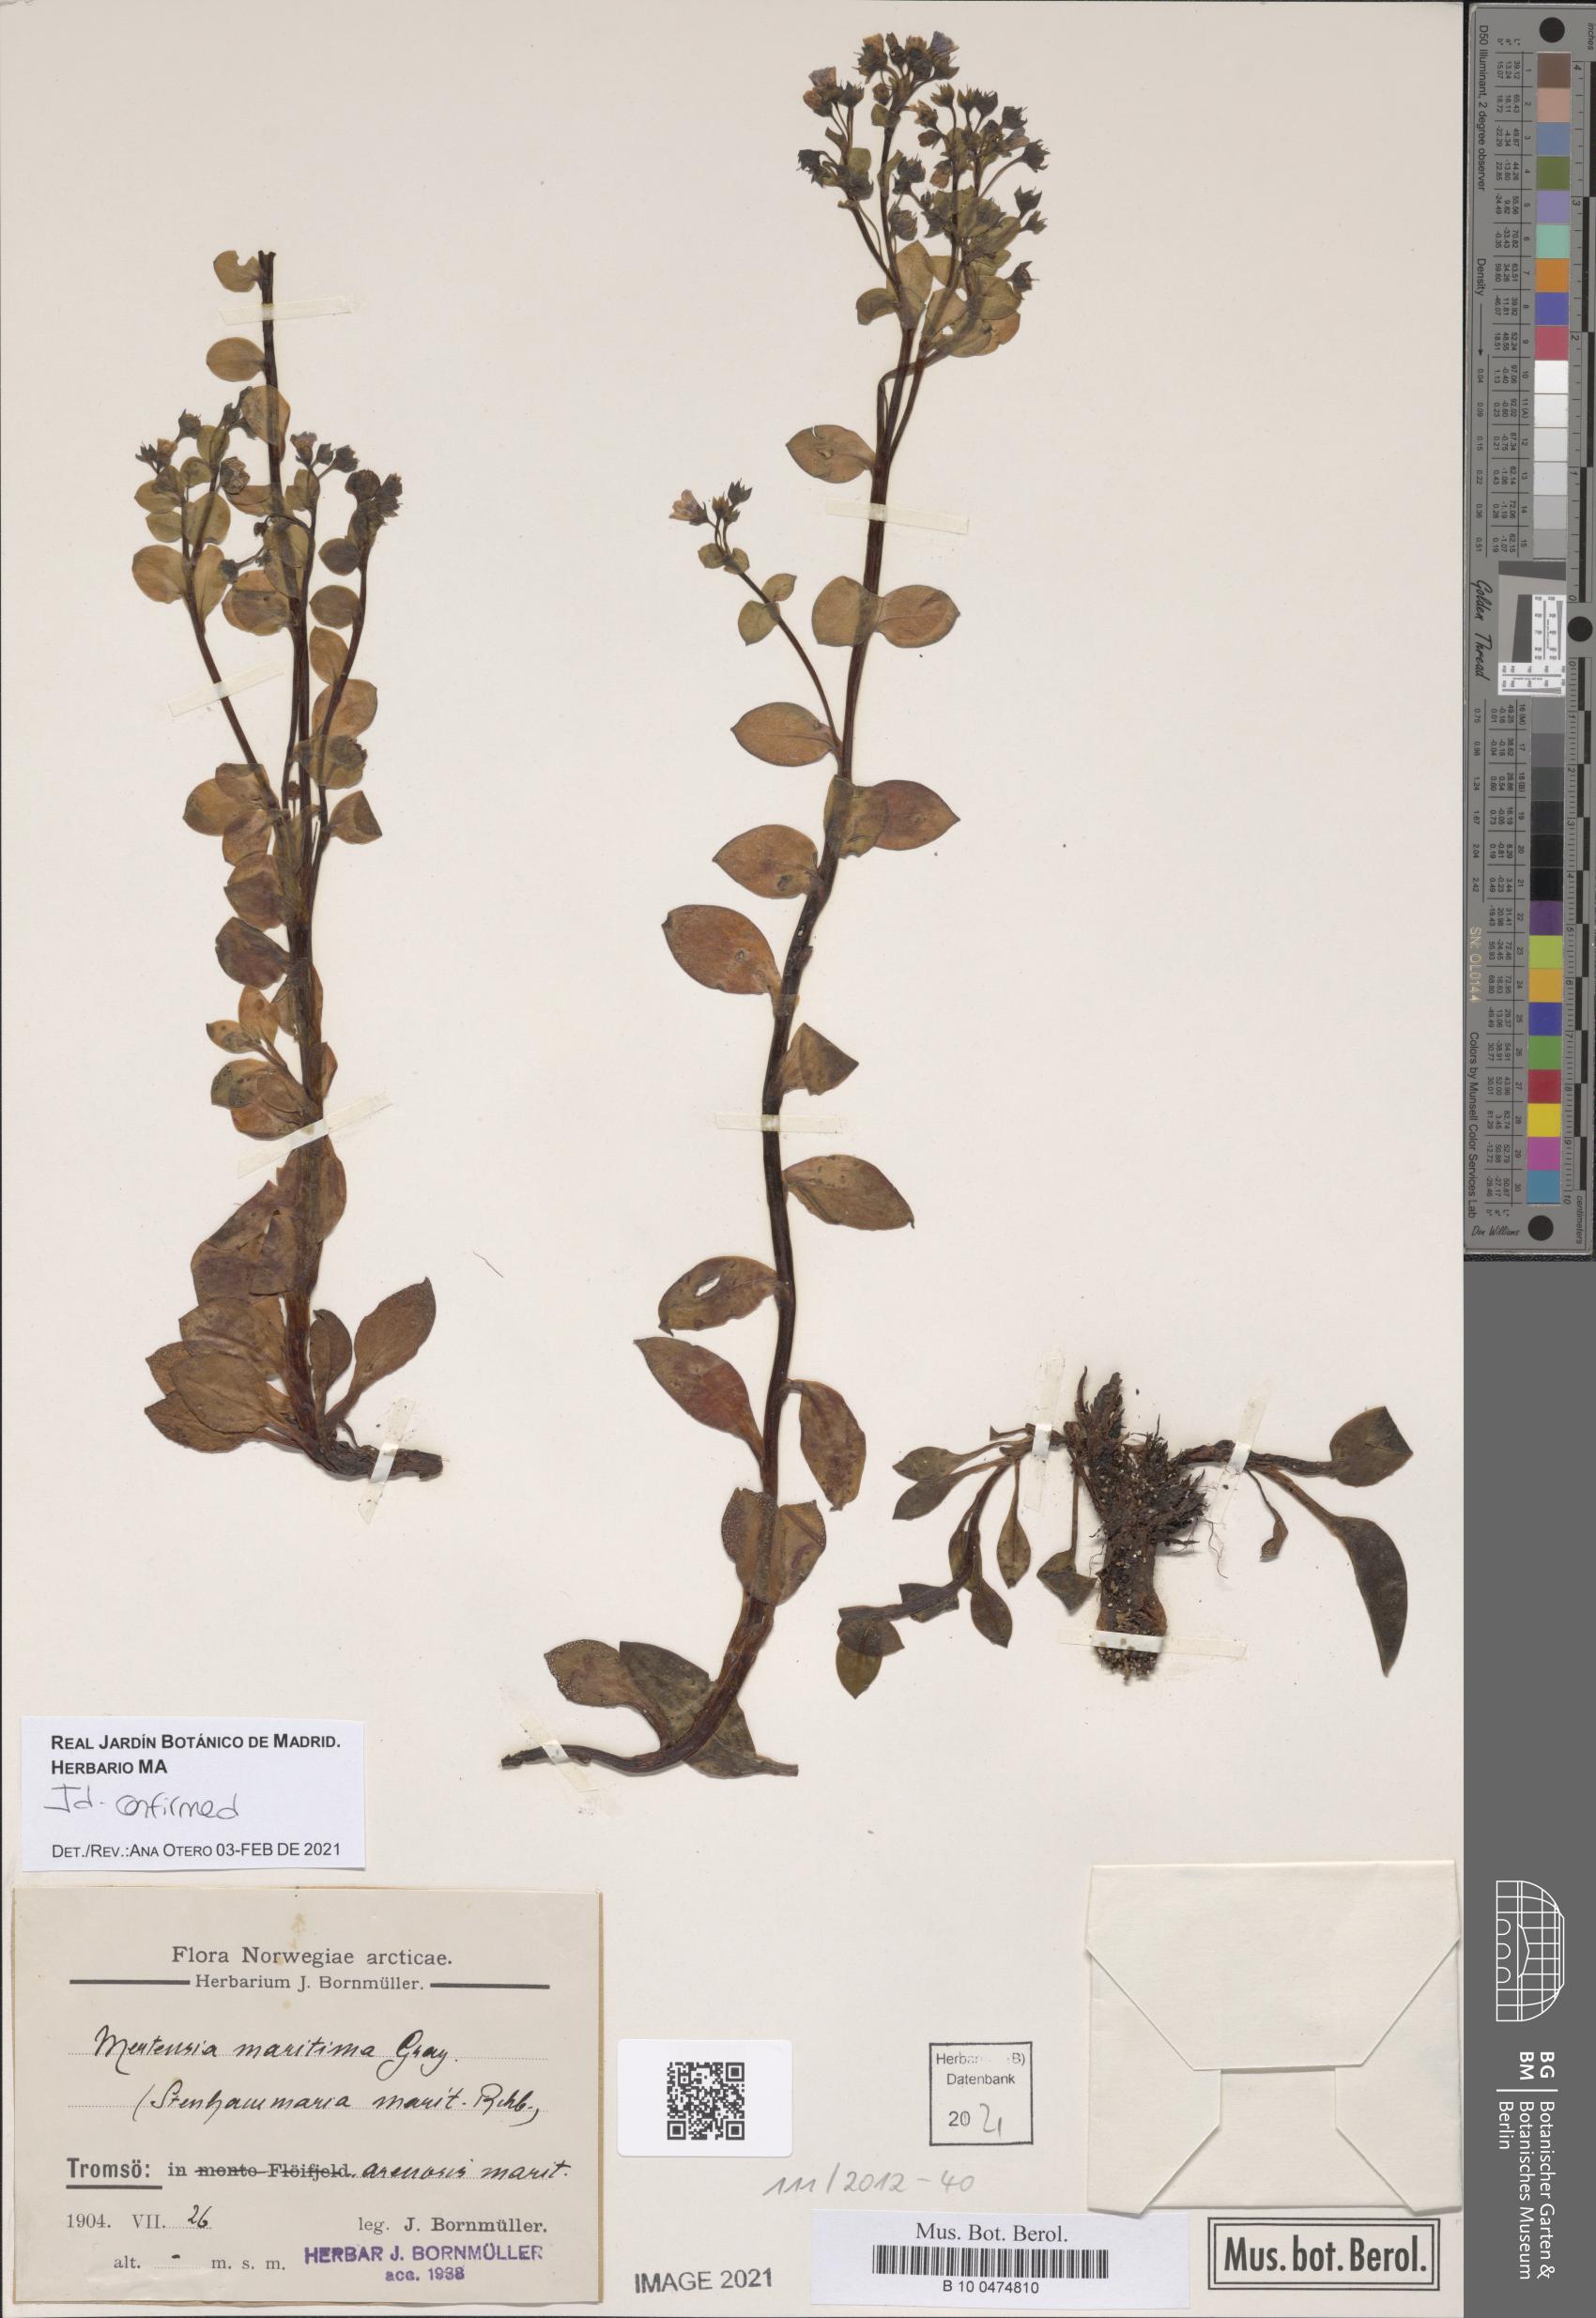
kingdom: Plantae
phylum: Tracheophyta
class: Magnoliopsida
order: Boraginales
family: Boraginaceae
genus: Mertensia
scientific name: Mertensia maritima
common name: Oysterplant
